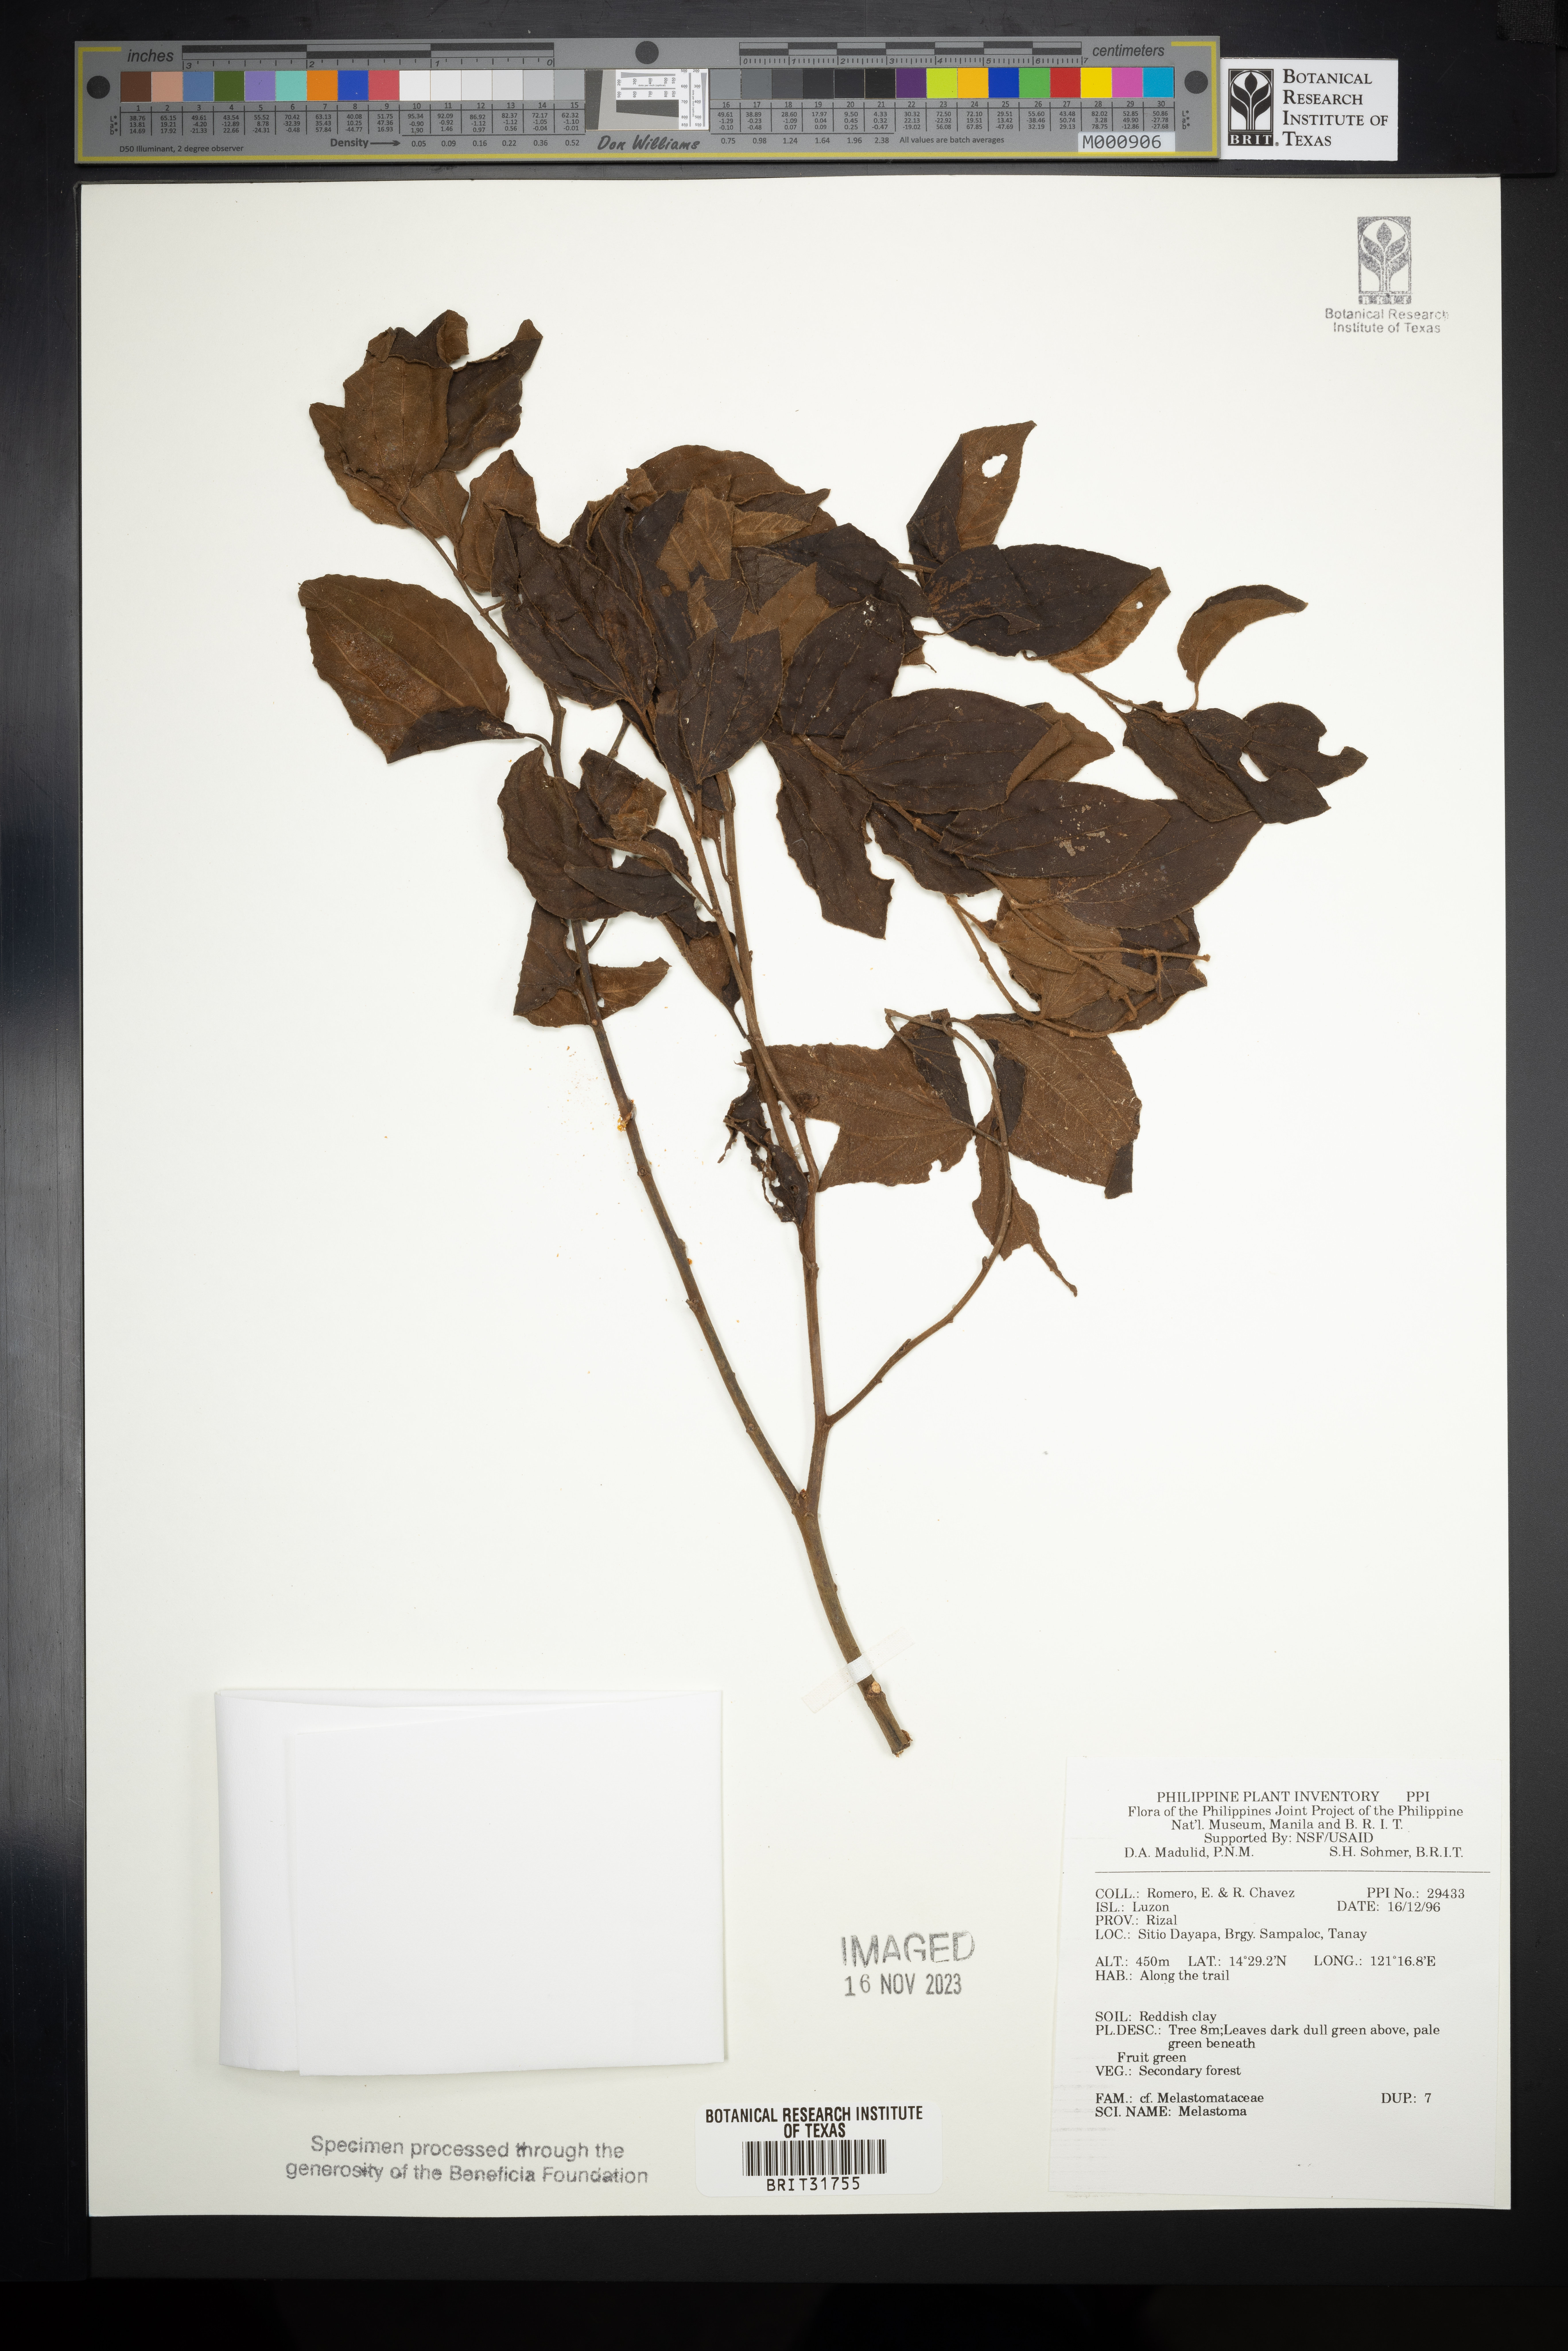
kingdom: Plantae
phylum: Tracheophyta
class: Magnoliopsida
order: Myrtales
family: Melastomataceae
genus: Melastoma
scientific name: Melastoma
